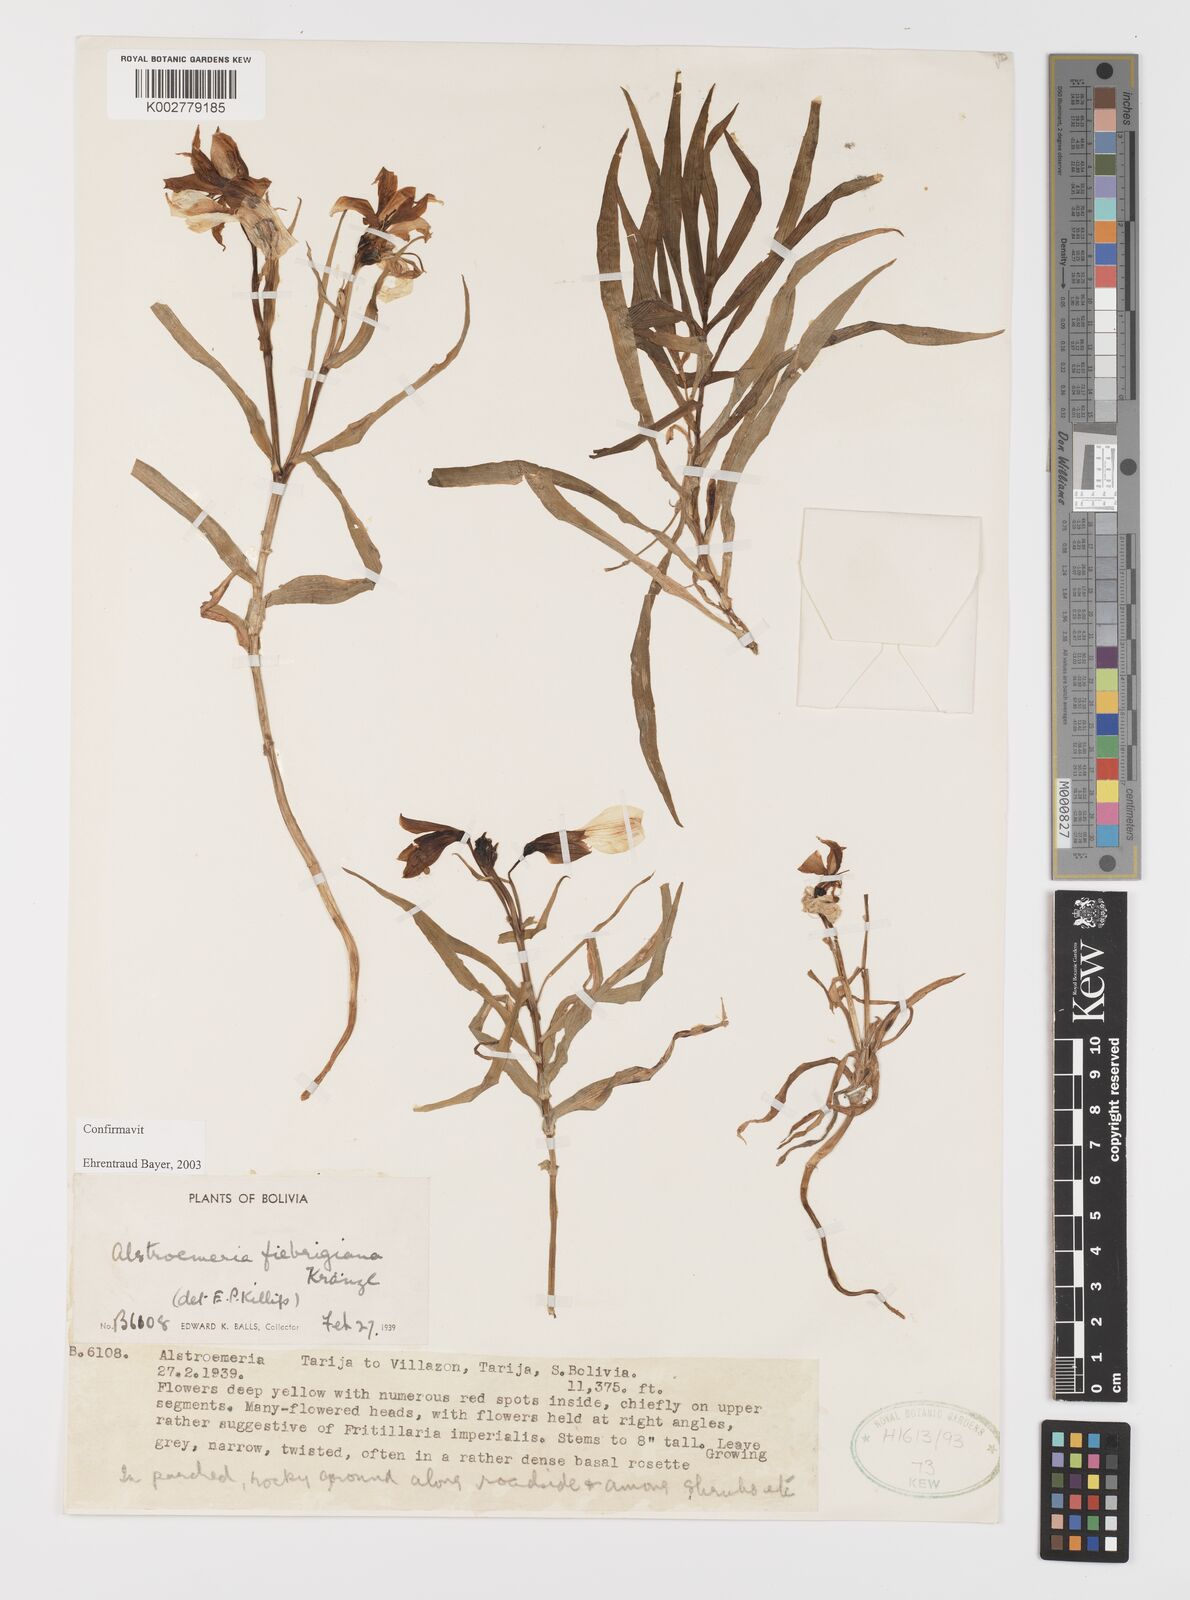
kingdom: Plantae
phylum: Tracheophyta
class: Liliopsida
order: Liliales
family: Alstroemeriaceae
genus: Alstroemeria
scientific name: Alstroemeria fiebrigiana
